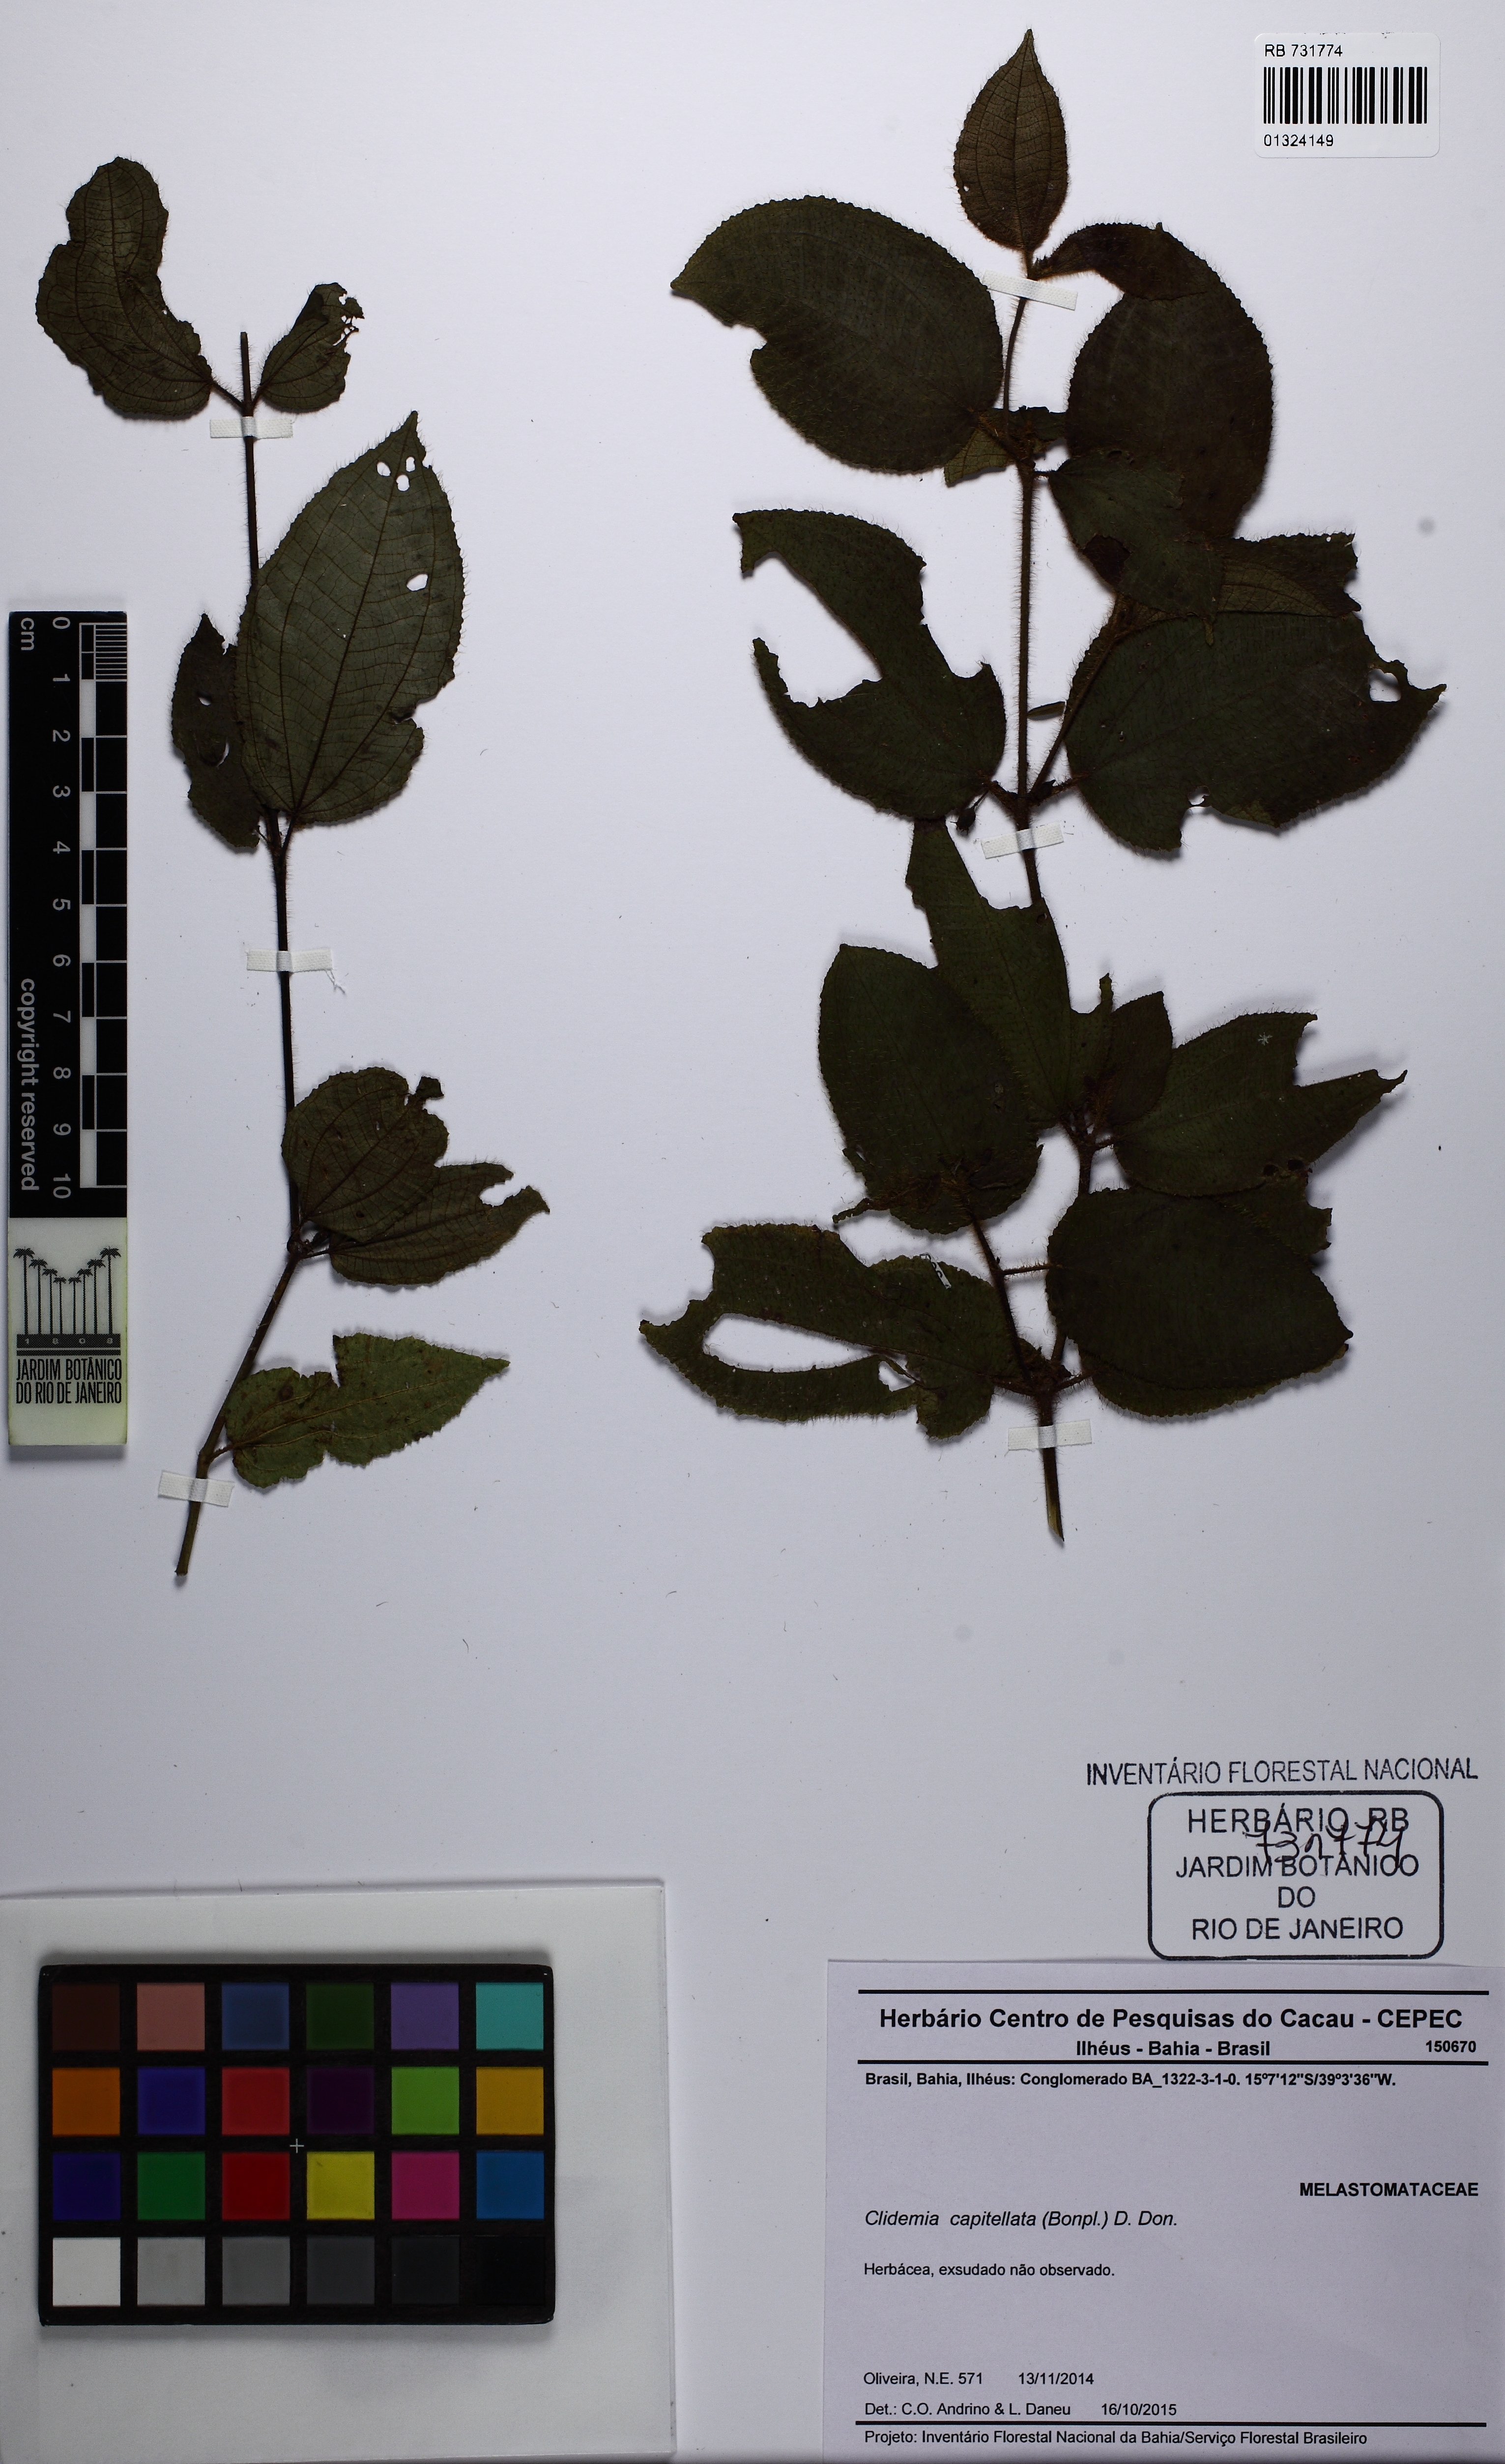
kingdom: Plantae
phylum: Tracheophyta
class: Magnoliopsida
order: Myrtales
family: Melastomataceae
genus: Miconia
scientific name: Miconia crenata
